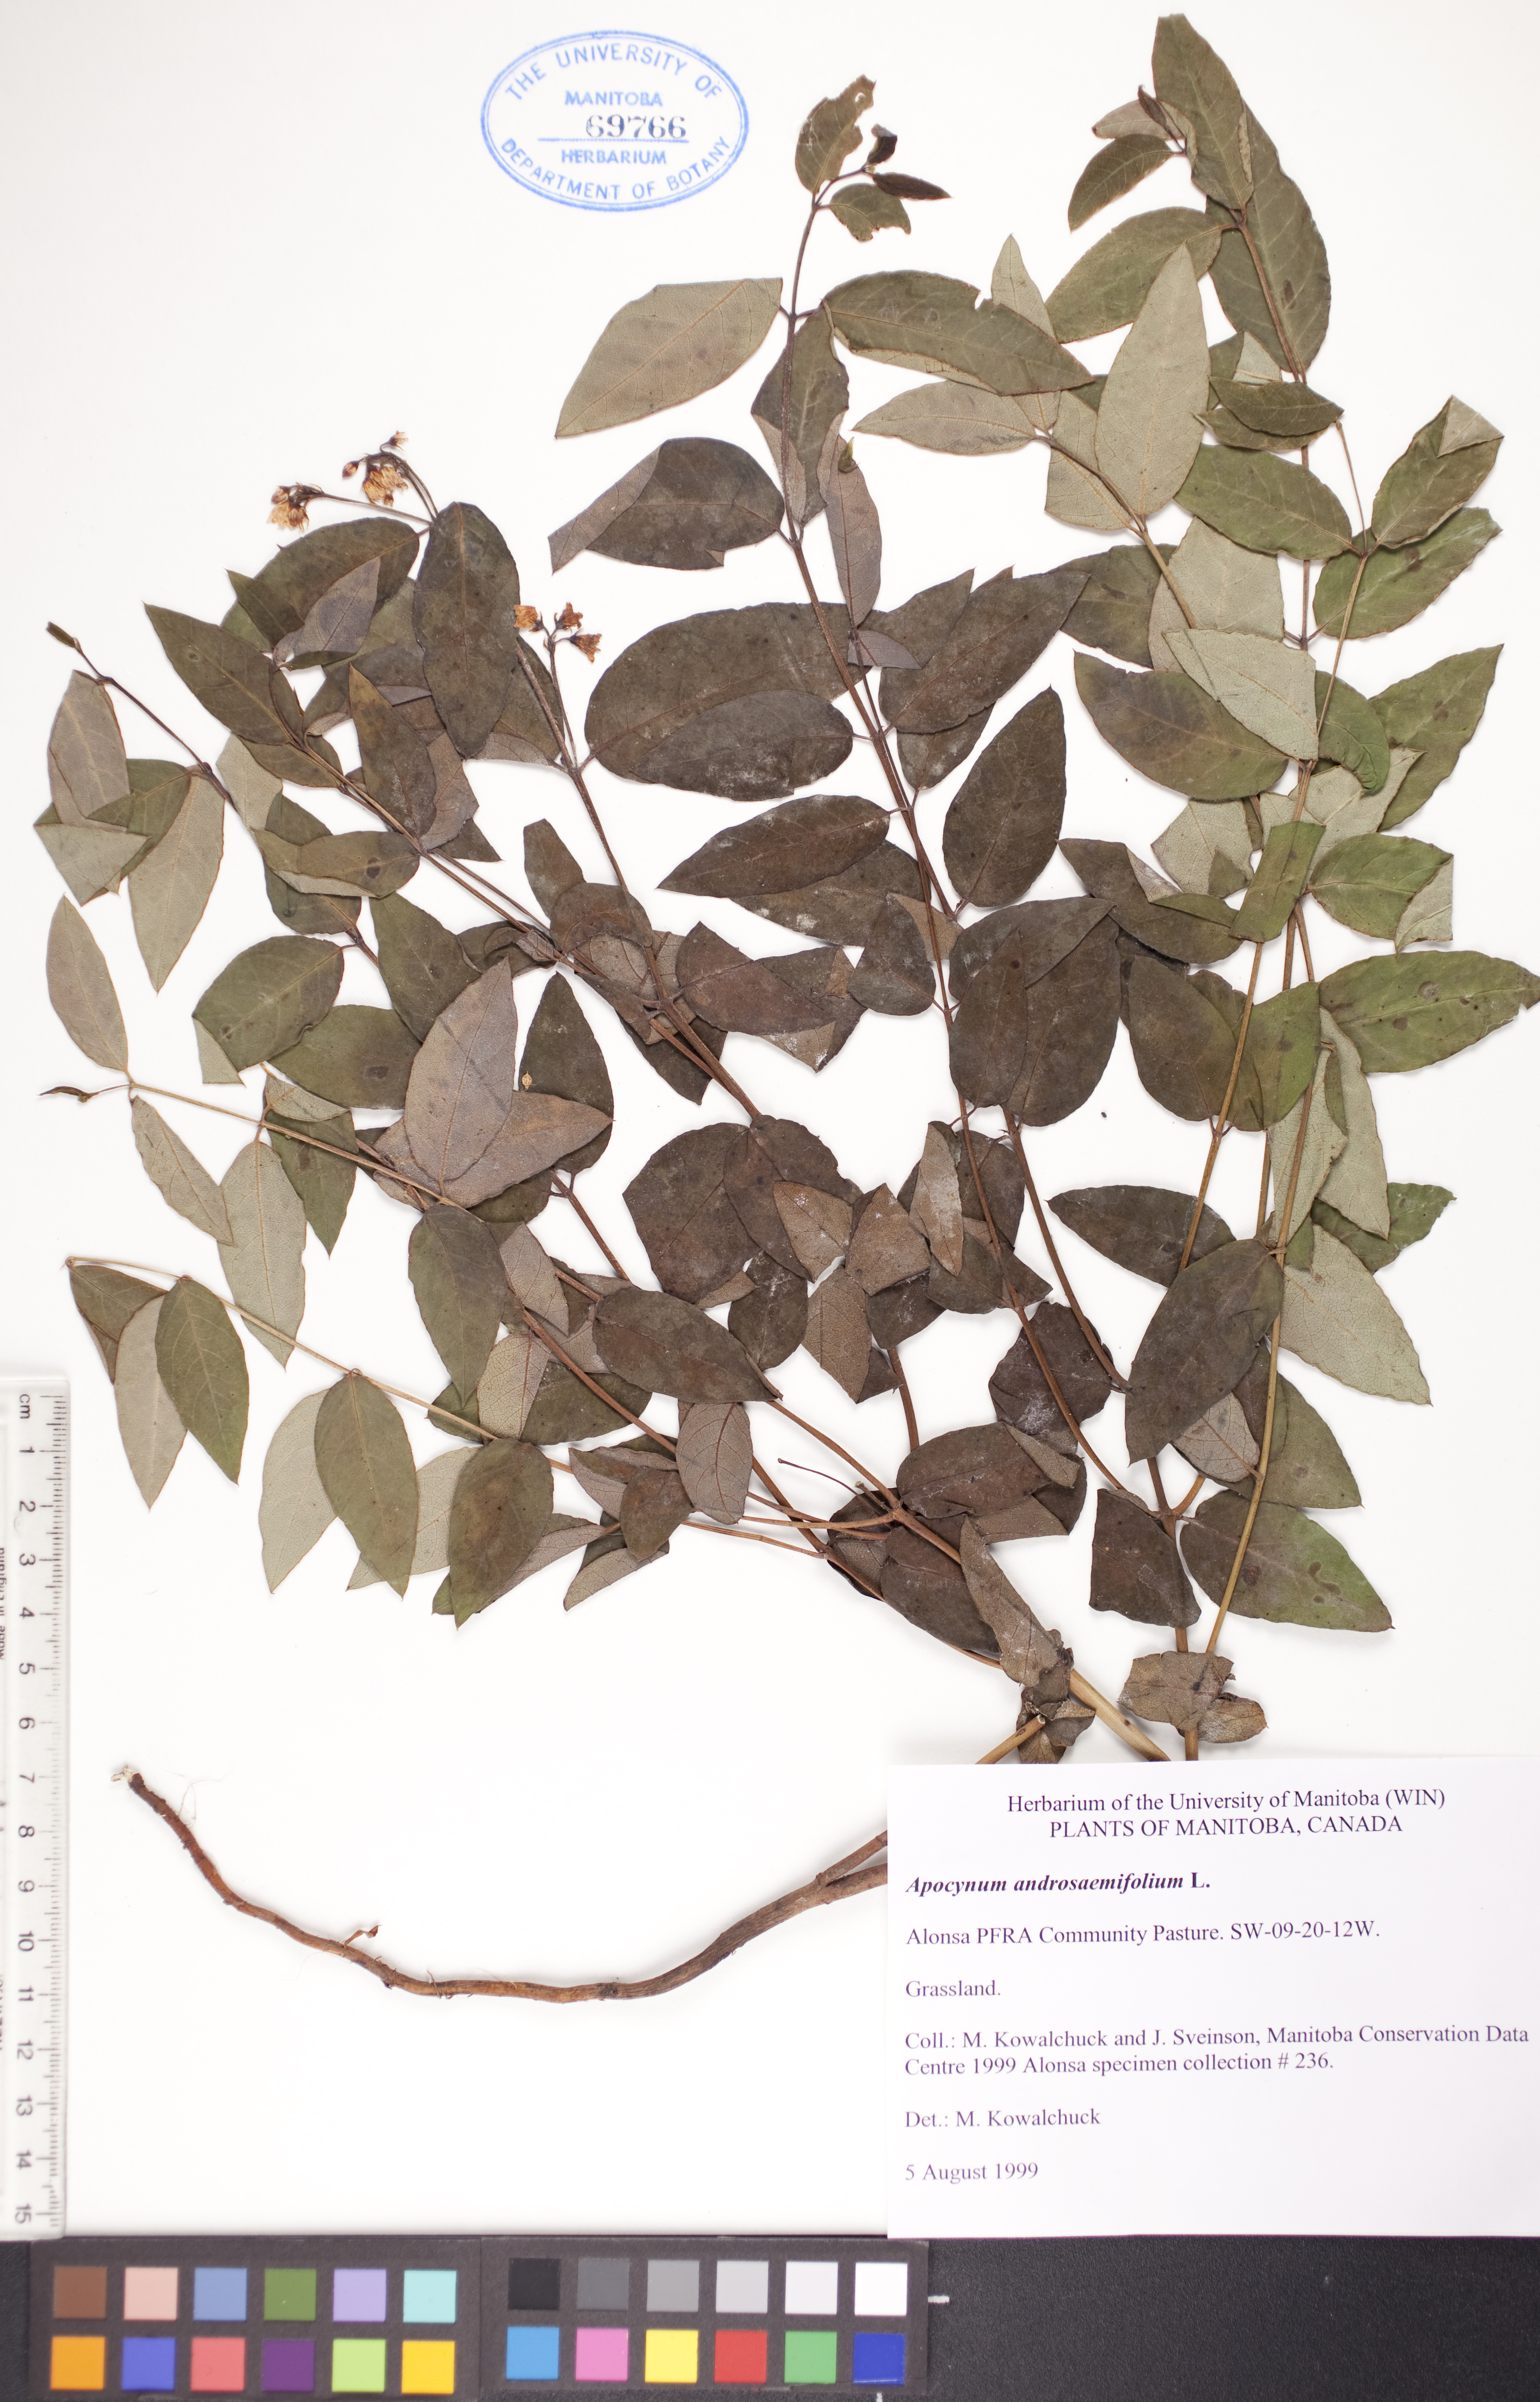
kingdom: Plantae
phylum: Tracheophyta
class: Magnoliopsida
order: Gentianales
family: Apocynaceae
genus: Apocynum
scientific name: Apocynum androsaemifolium
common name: Spreading dogbane
